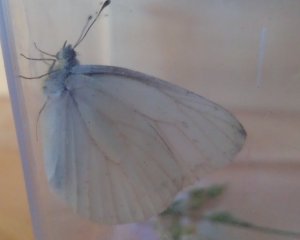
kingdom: Animalia
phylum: Arthropoda
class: Insecta
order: Lepidoptera
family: Pieridae
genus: Pieris
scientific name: Pieris oleracea
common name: Mustard White
